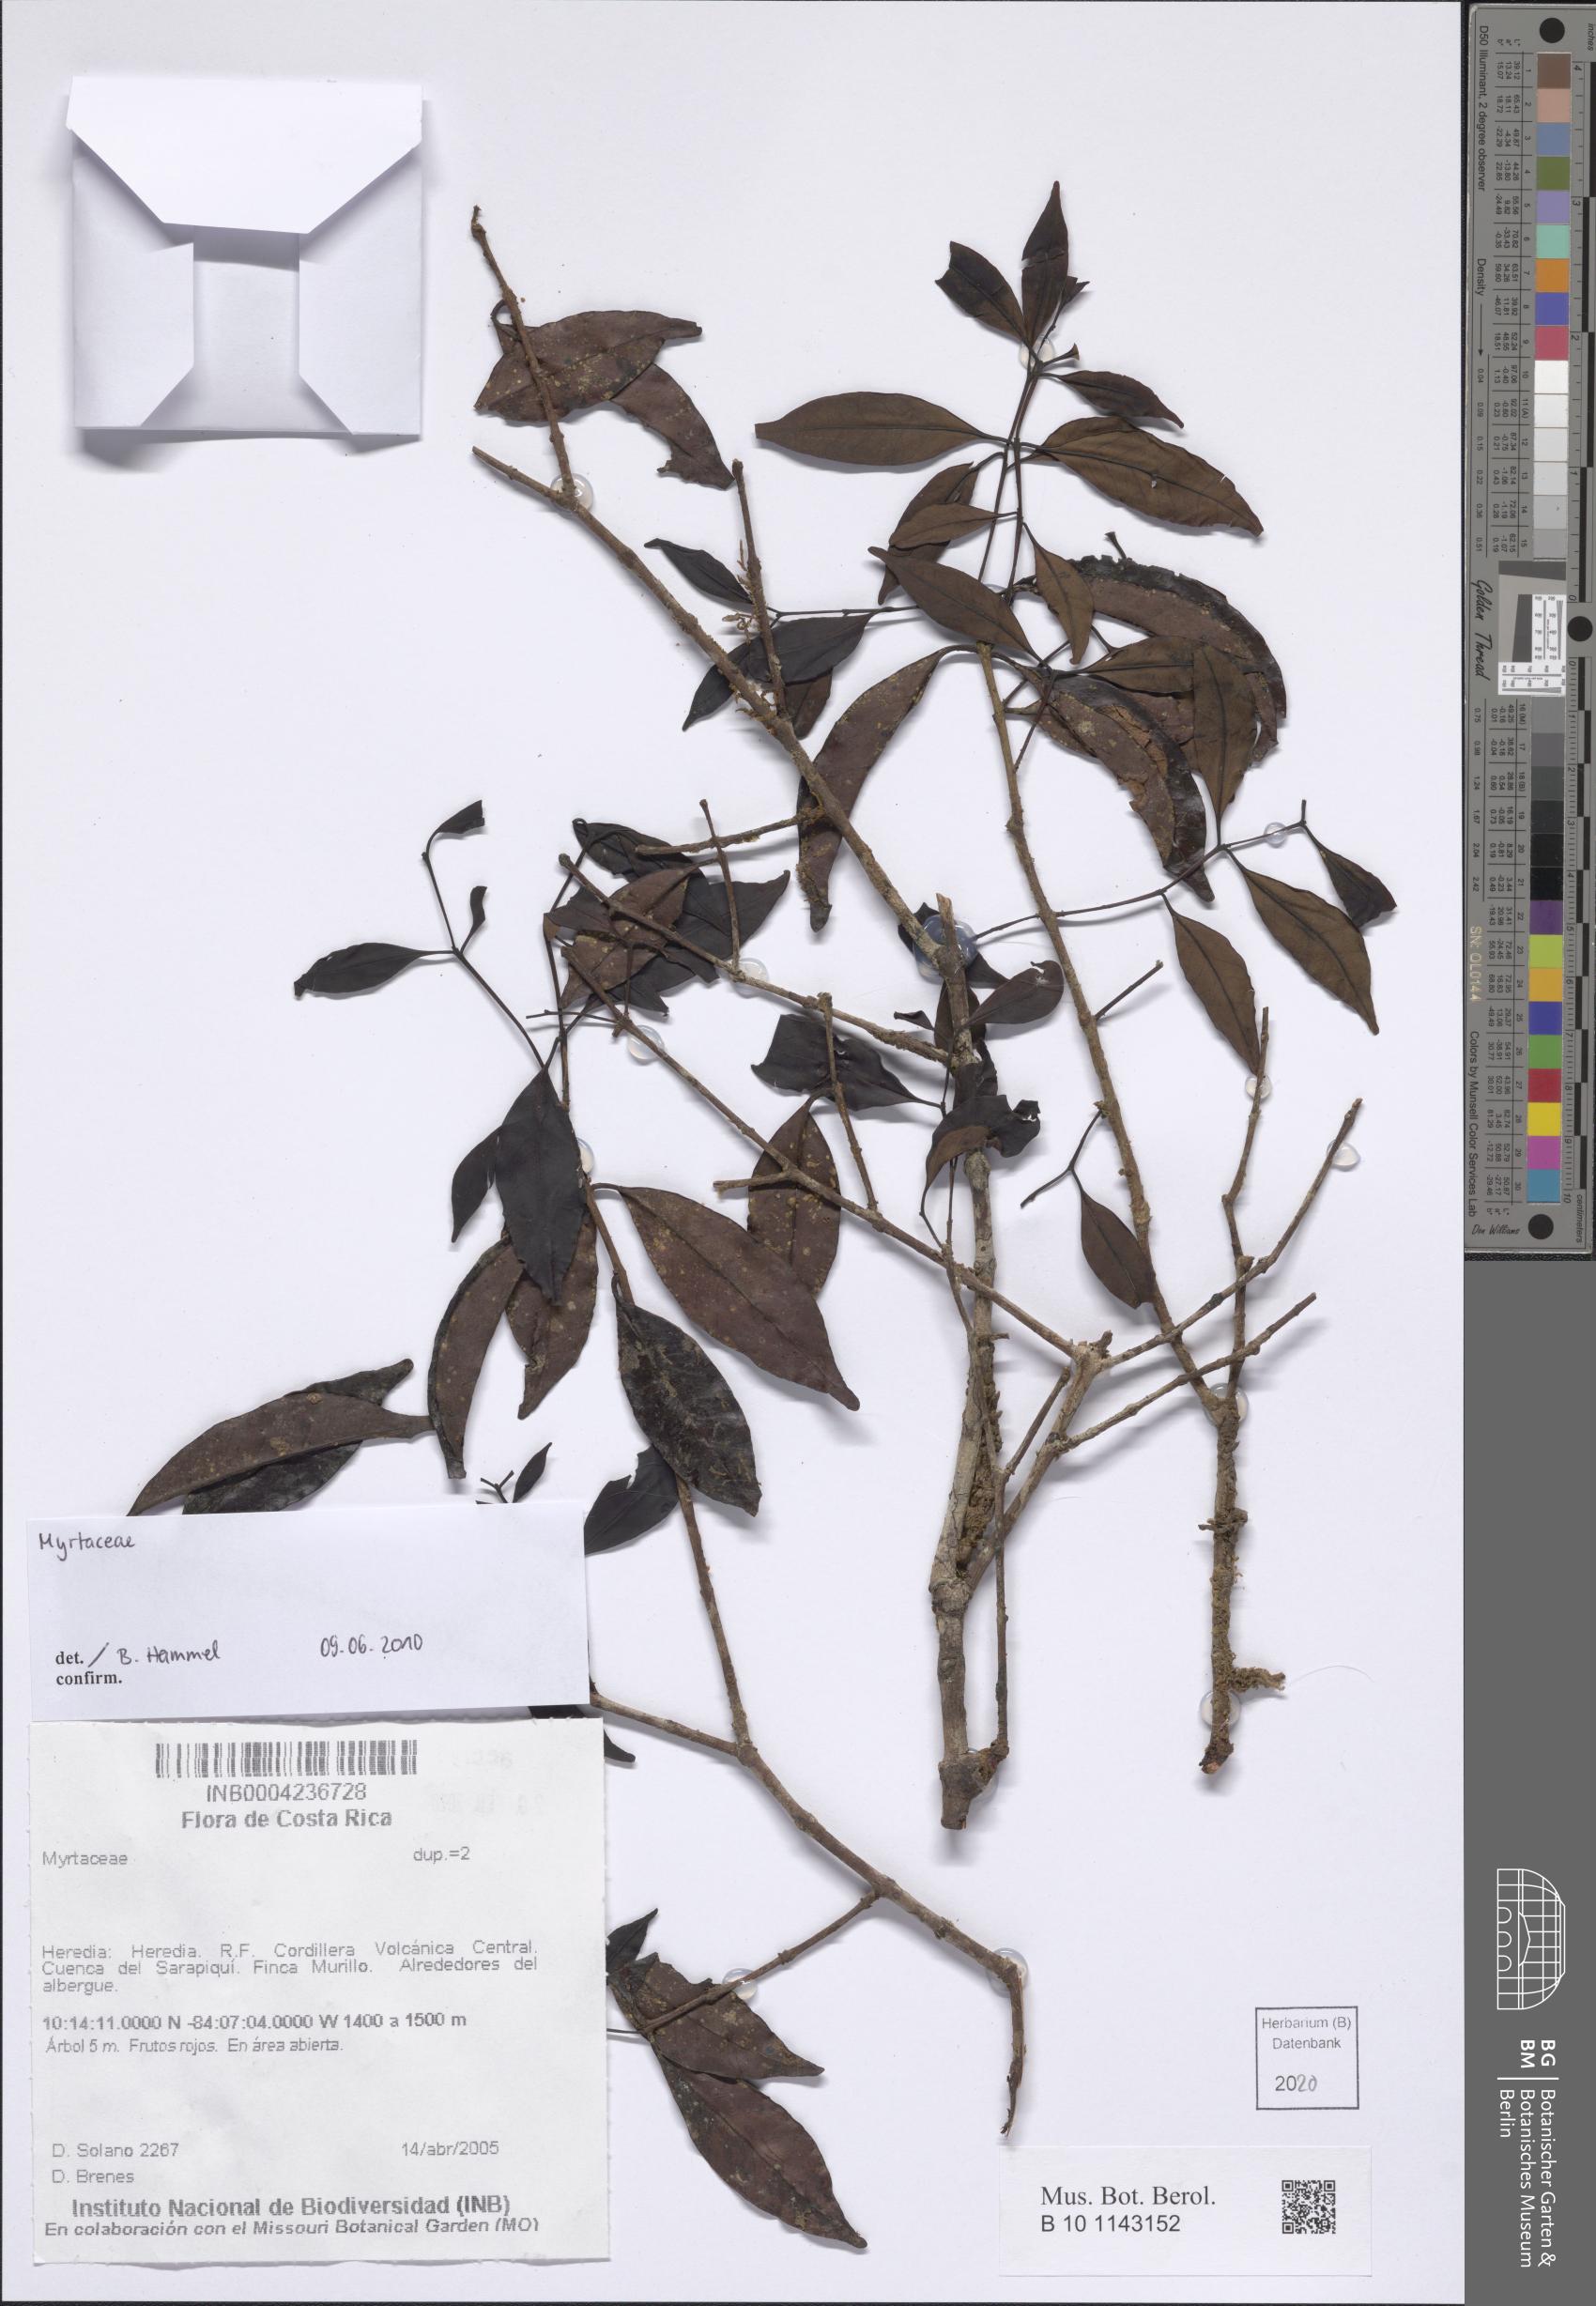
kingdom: Plantae
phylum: Tracheophyta
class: Magnoliopsida
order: Myrtales
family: Myrtaceae
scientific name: Myrtaceae
